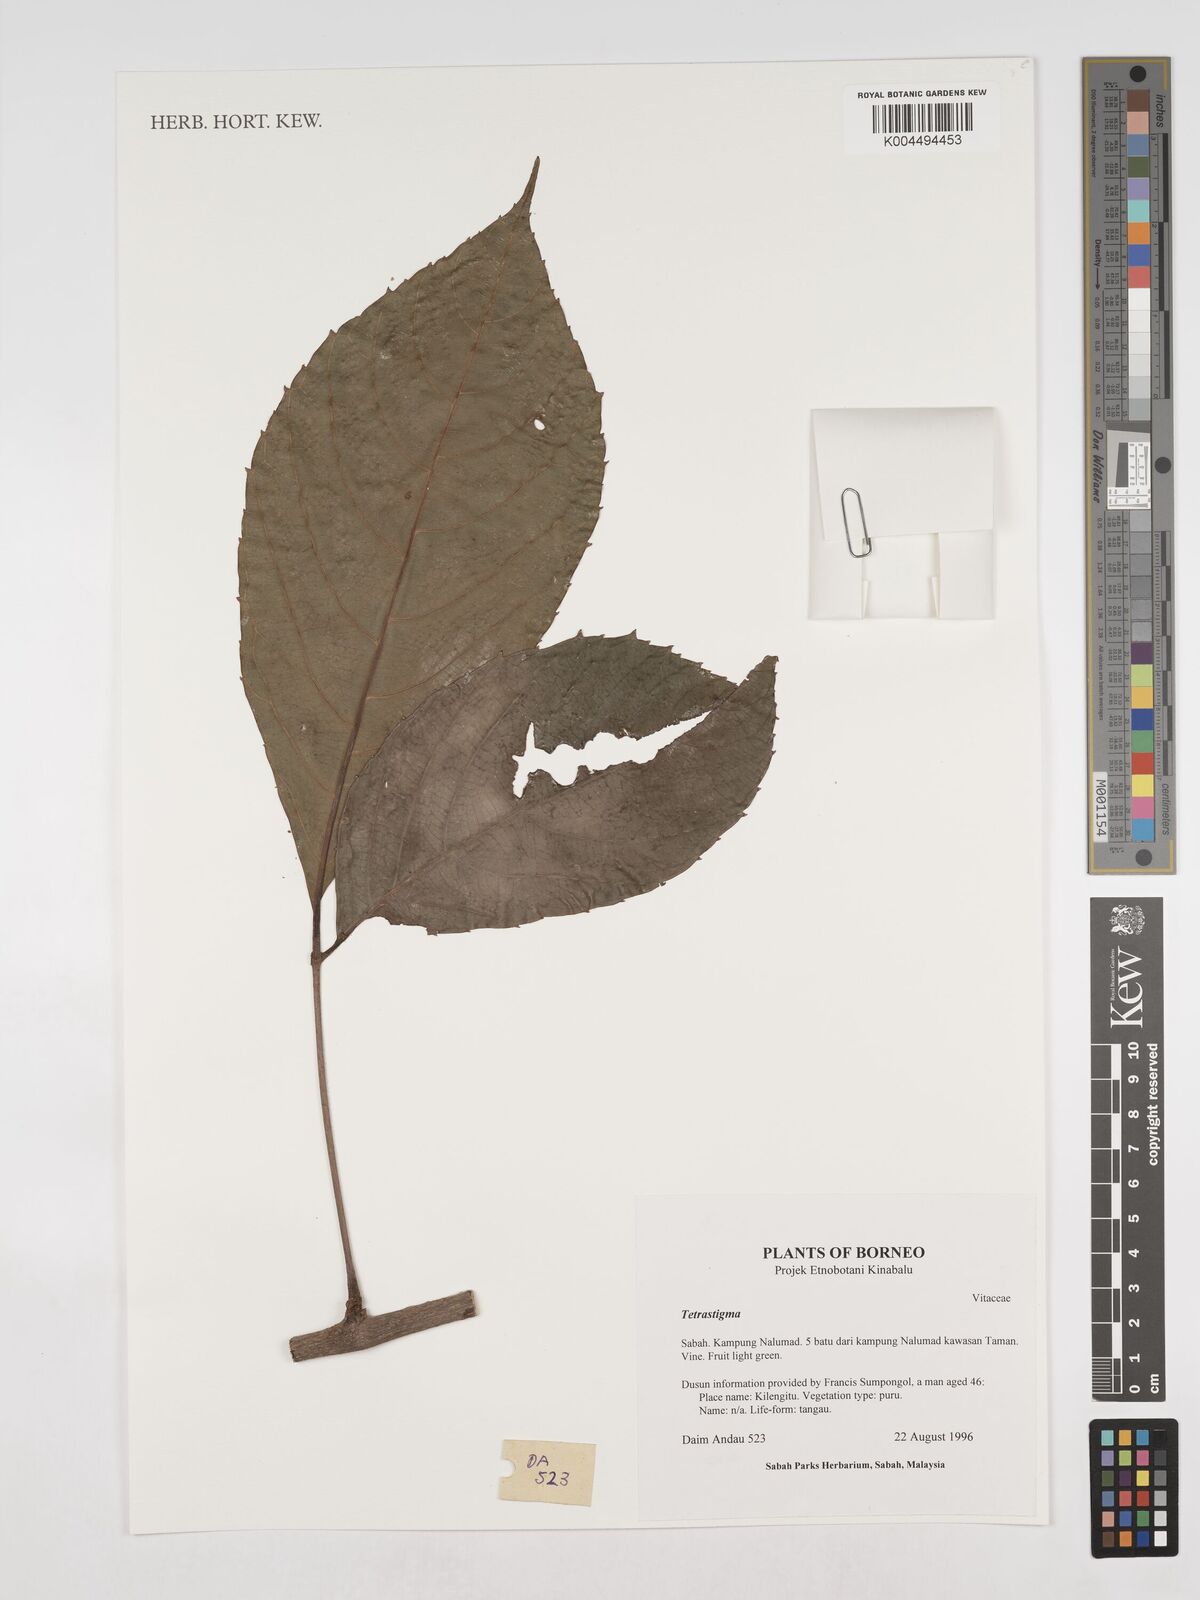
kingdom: Plantae
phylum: Tracheophyta
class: Magnoliopsida
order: Vitales
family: Vitaceae
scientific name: Vitaceae
